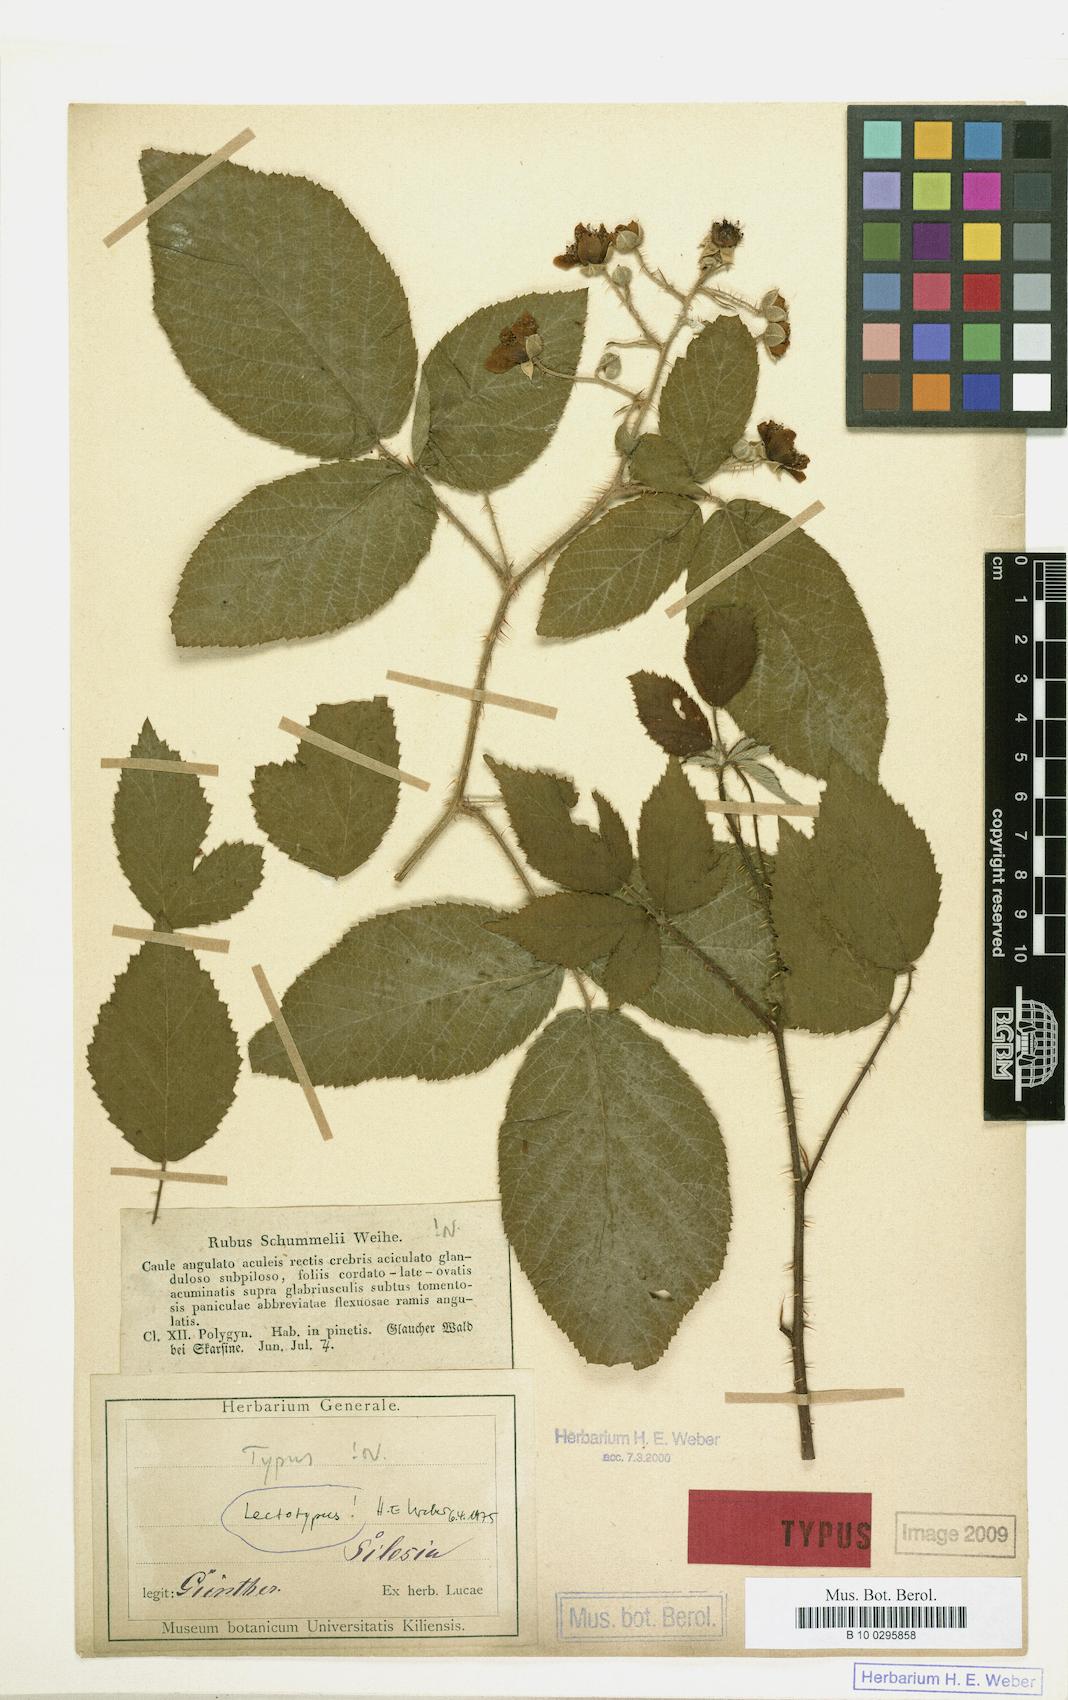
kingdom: Plantae
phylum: Tracheophyta
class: Magnoliopsida
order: Rosales
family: Rosaceae
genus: Rubus
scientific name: Rubus schummelii
